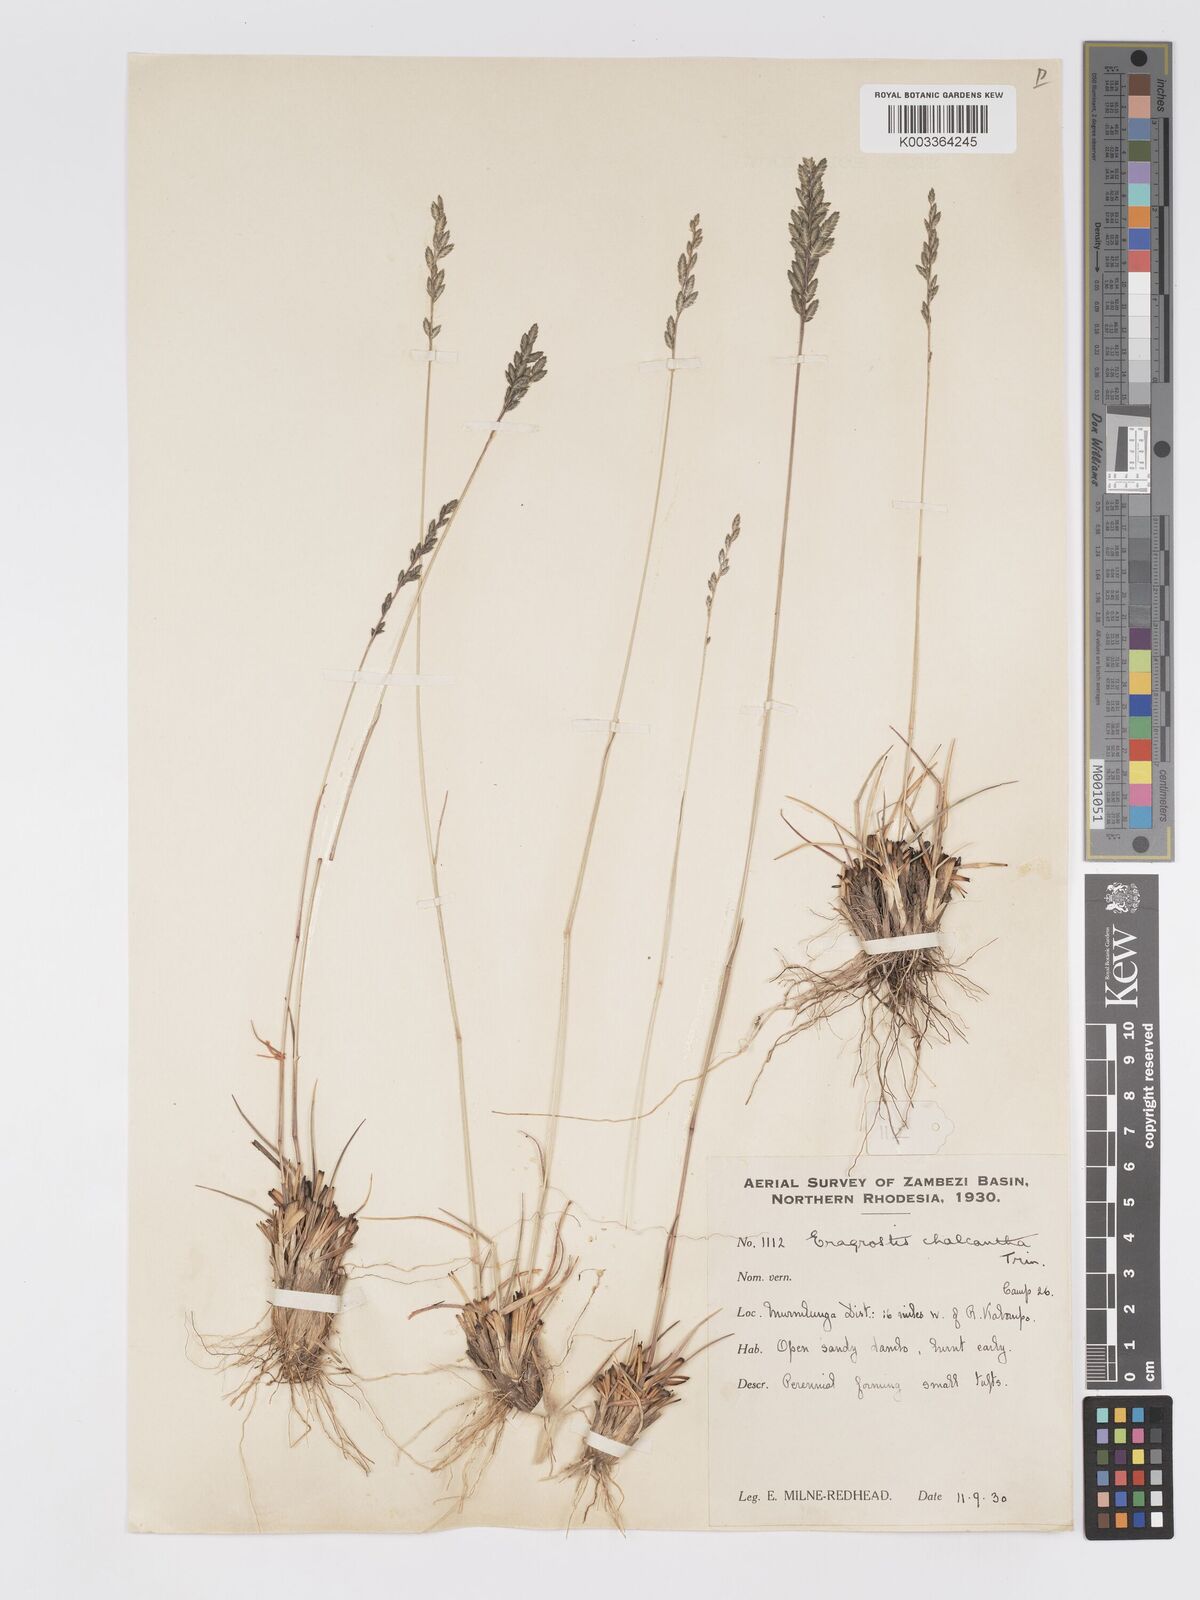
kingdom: Plantae
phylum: Tracheophyta
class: Liliopsida
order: Poales
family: Poaceae
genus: Eragrostis
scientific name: Eragrostis racemosa
